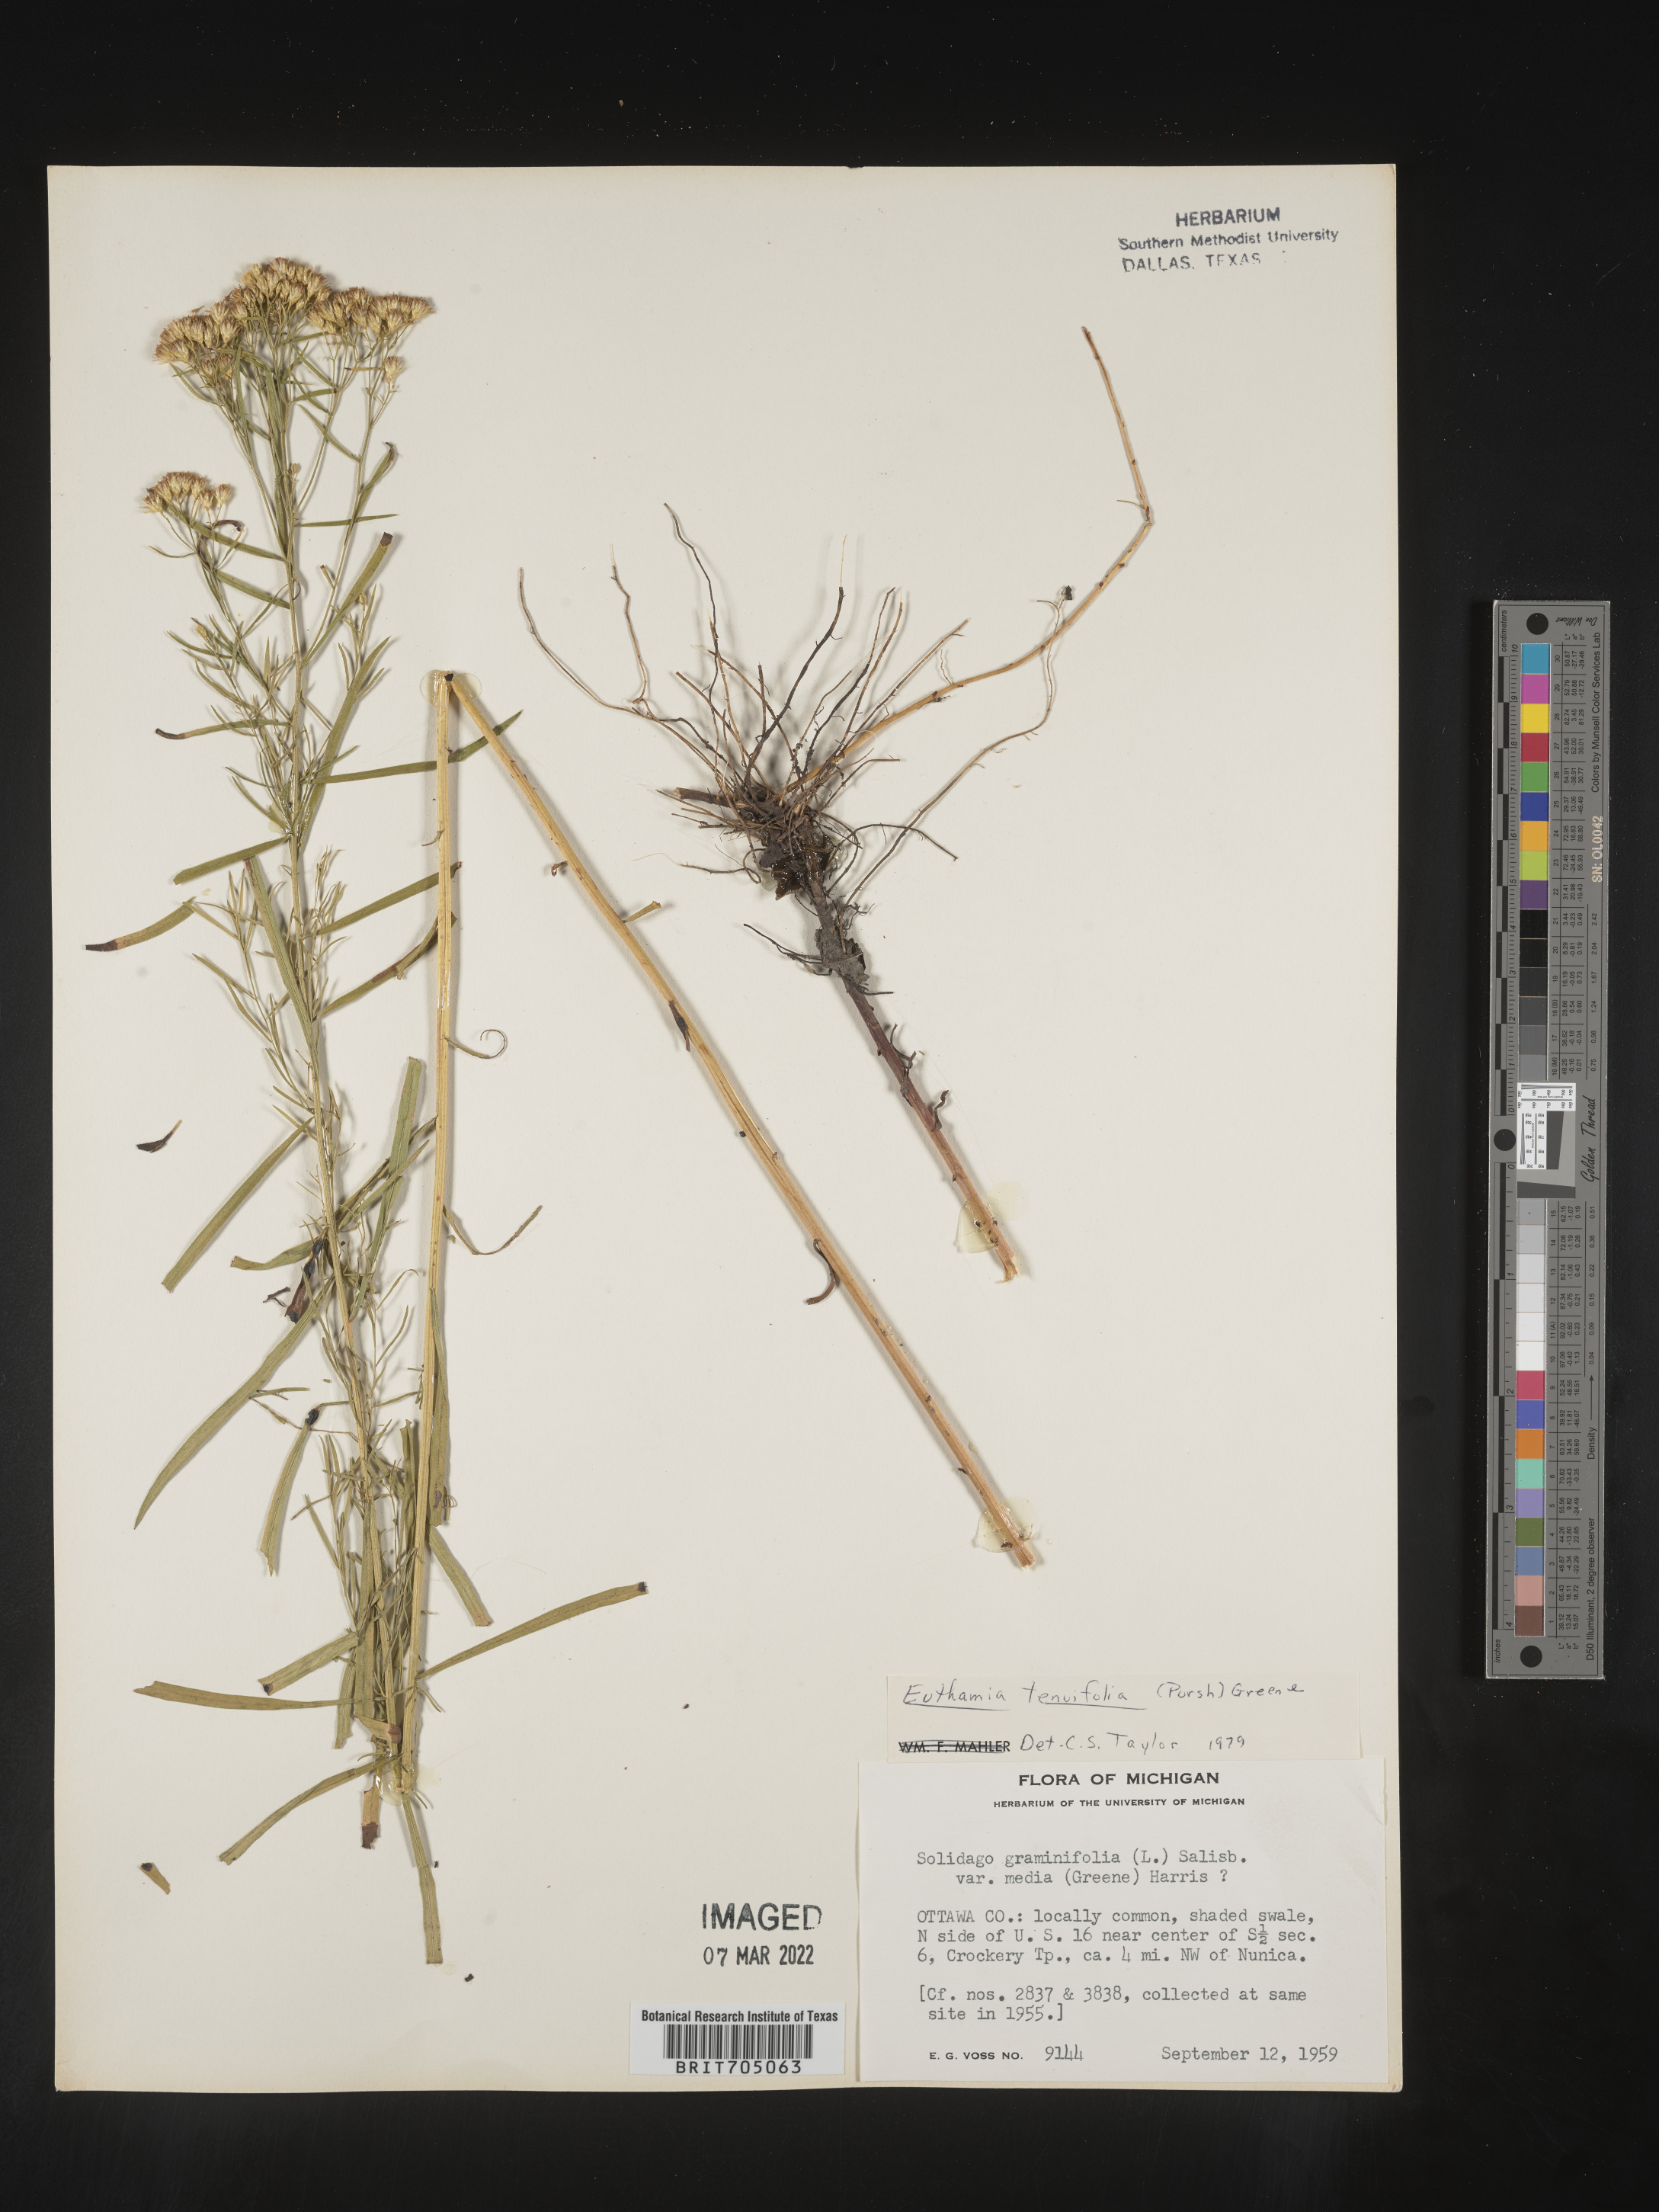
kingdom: Plantae
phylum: Tracheophyta
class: Magnoliopsida
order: Asterales
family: Asteraceae
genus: Euthamia
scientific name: Euthamia gymnospermoides
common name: Great plains goldentop
